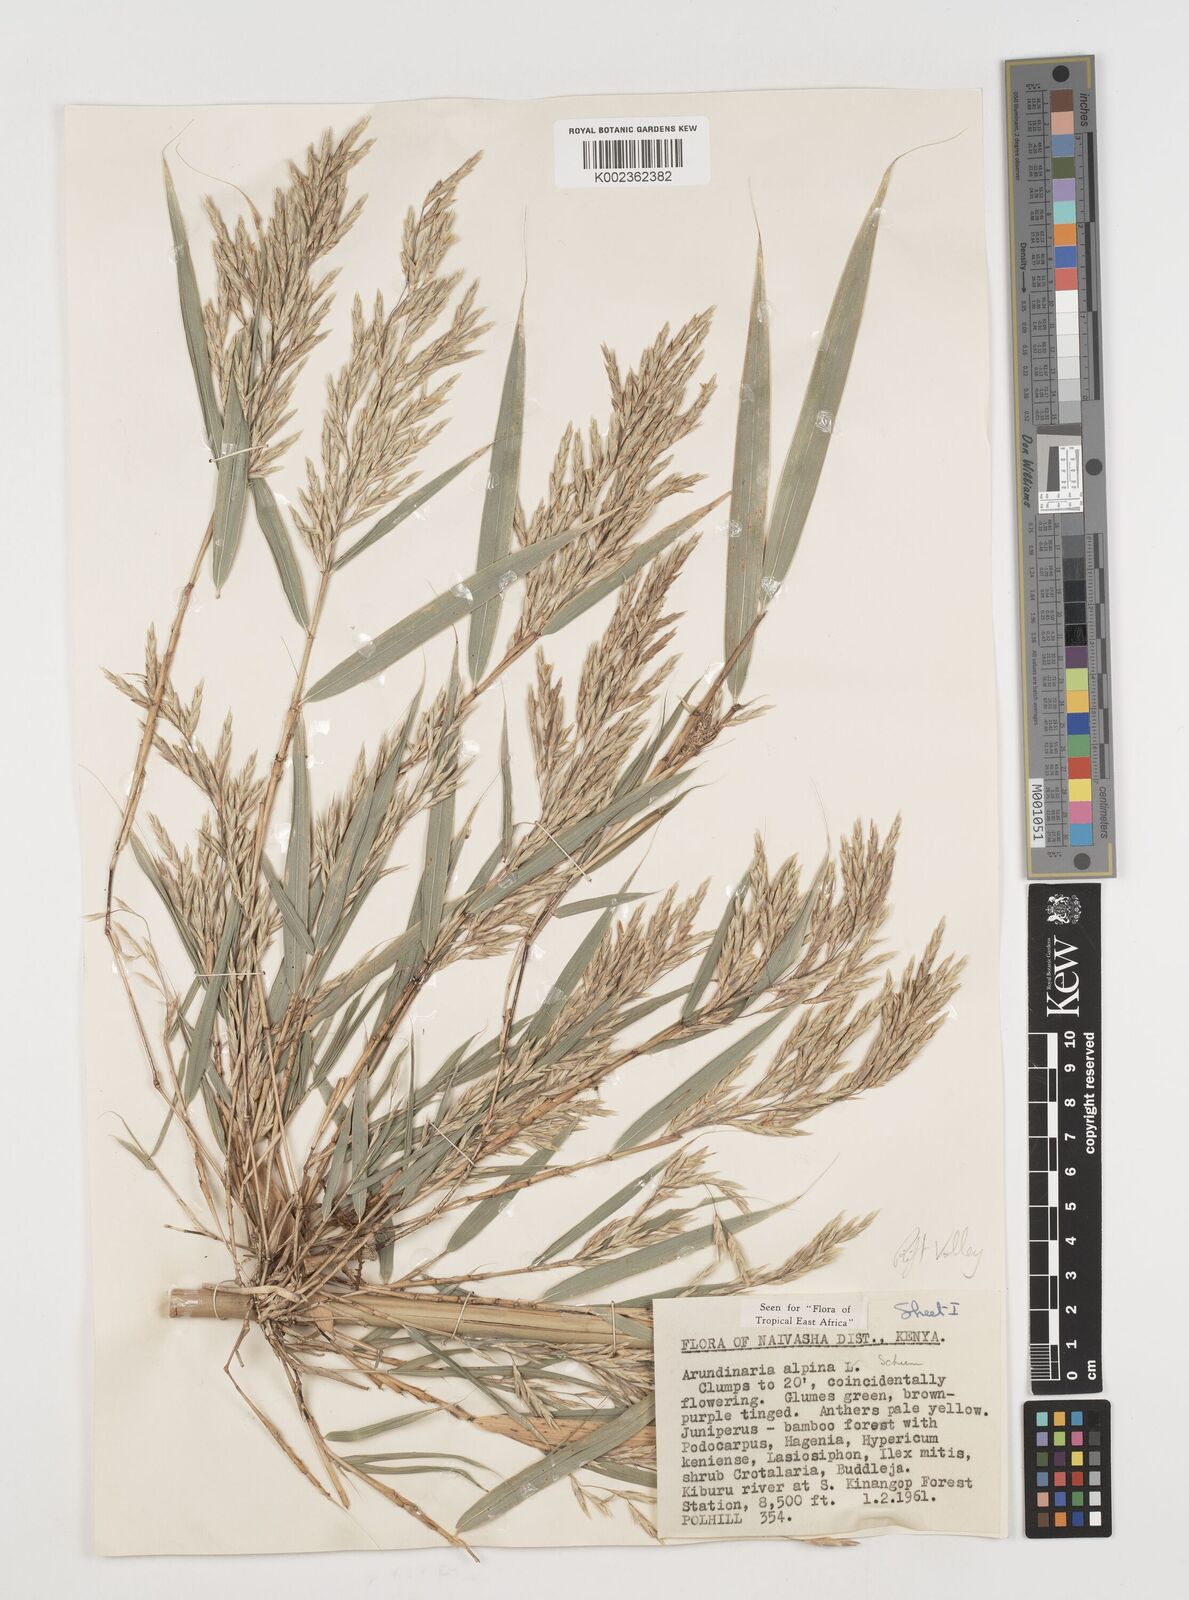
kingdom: Plantae
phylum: Tracheophyta
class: Liliopsida
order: Poales
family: Poaceae
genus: Oldeania
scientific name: Oldeania alpina
